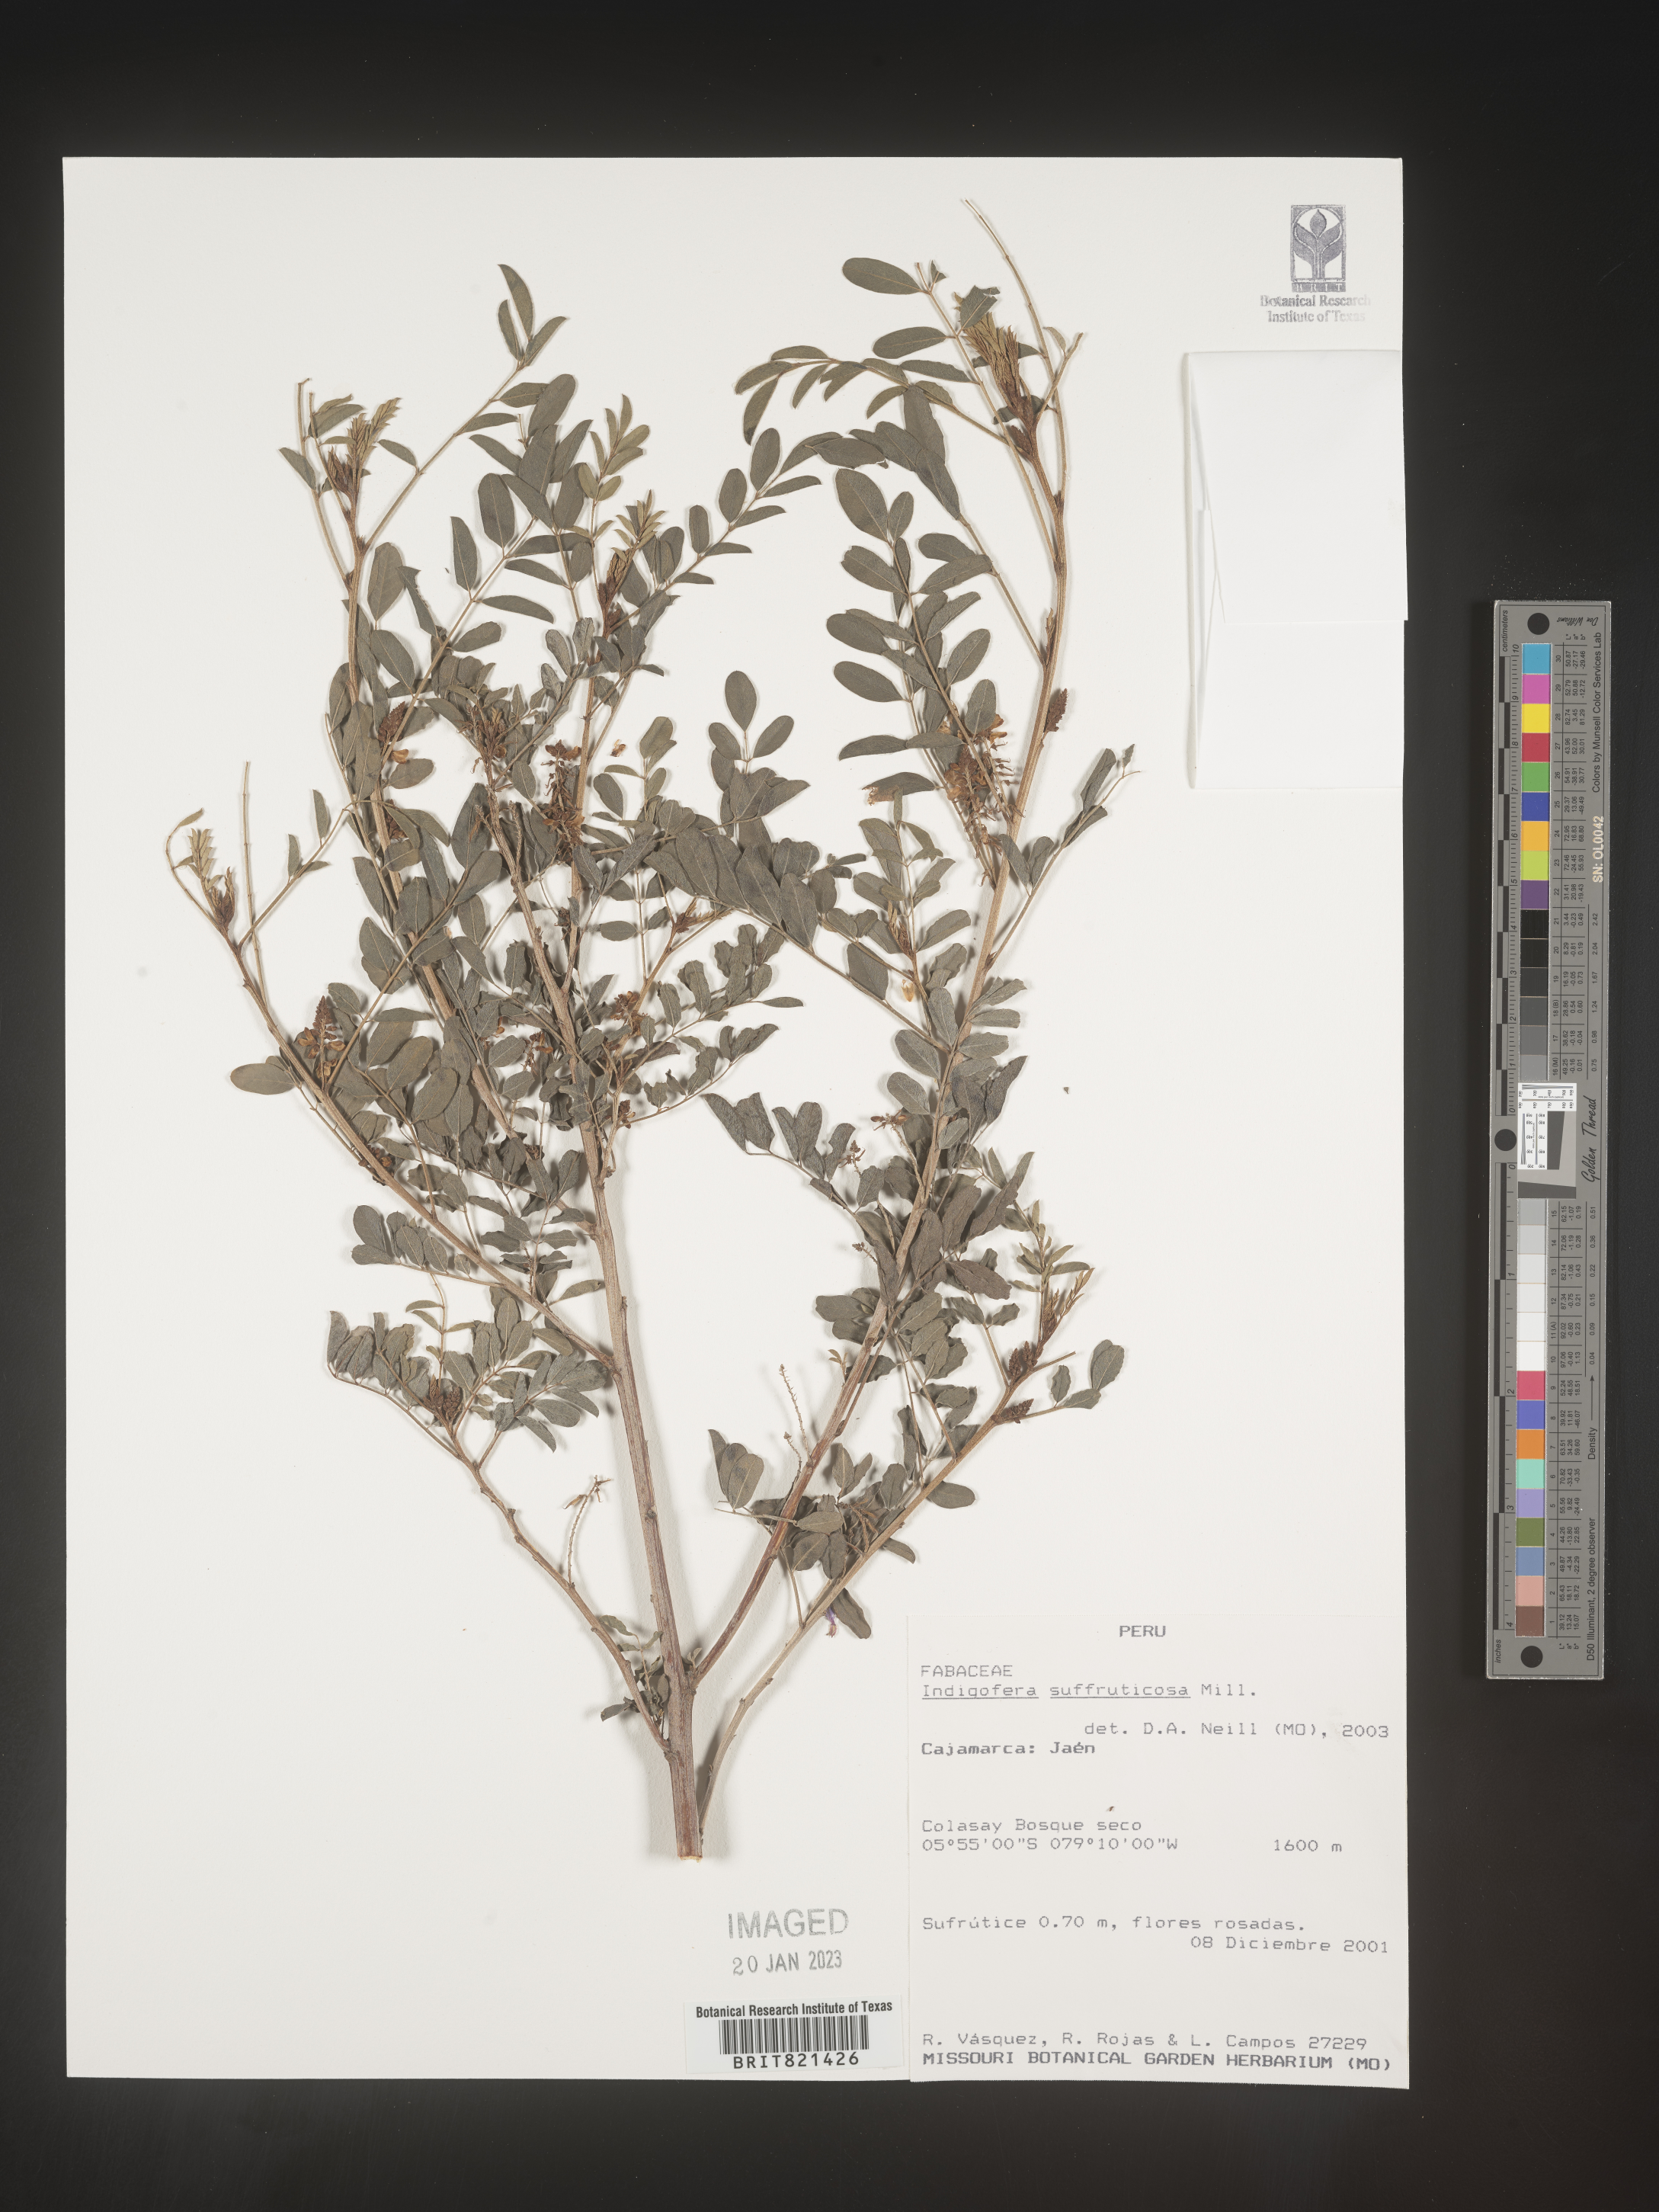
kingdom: Plantae
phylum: Tracheophyta
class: Magnoliopsida
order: Fabales
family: Fabaceae
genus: Indigofera
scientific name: Indigofera
